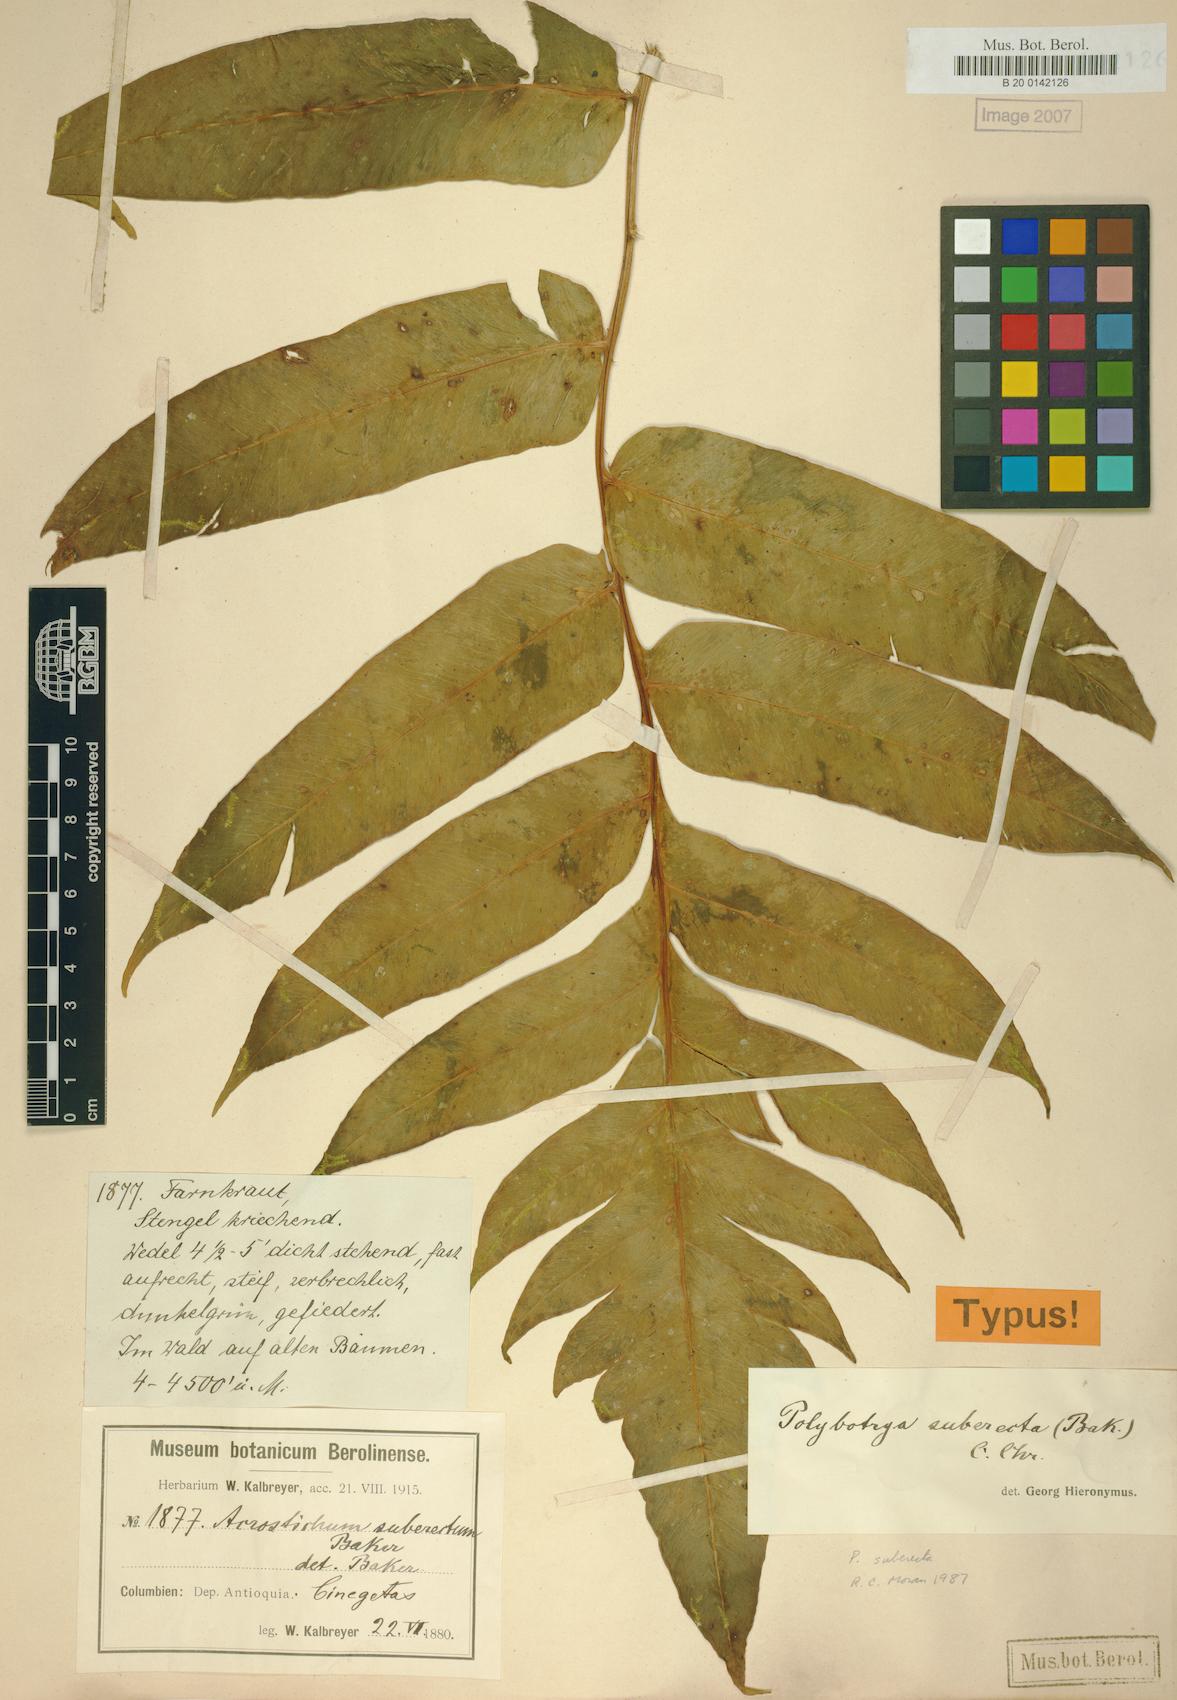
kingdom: Plantae
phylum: Tracheophyta
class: Polypodiopsida
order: Polypodiales
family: Dryopteridaceae
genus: Polybotrya
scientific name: Polybotrya suberecta
